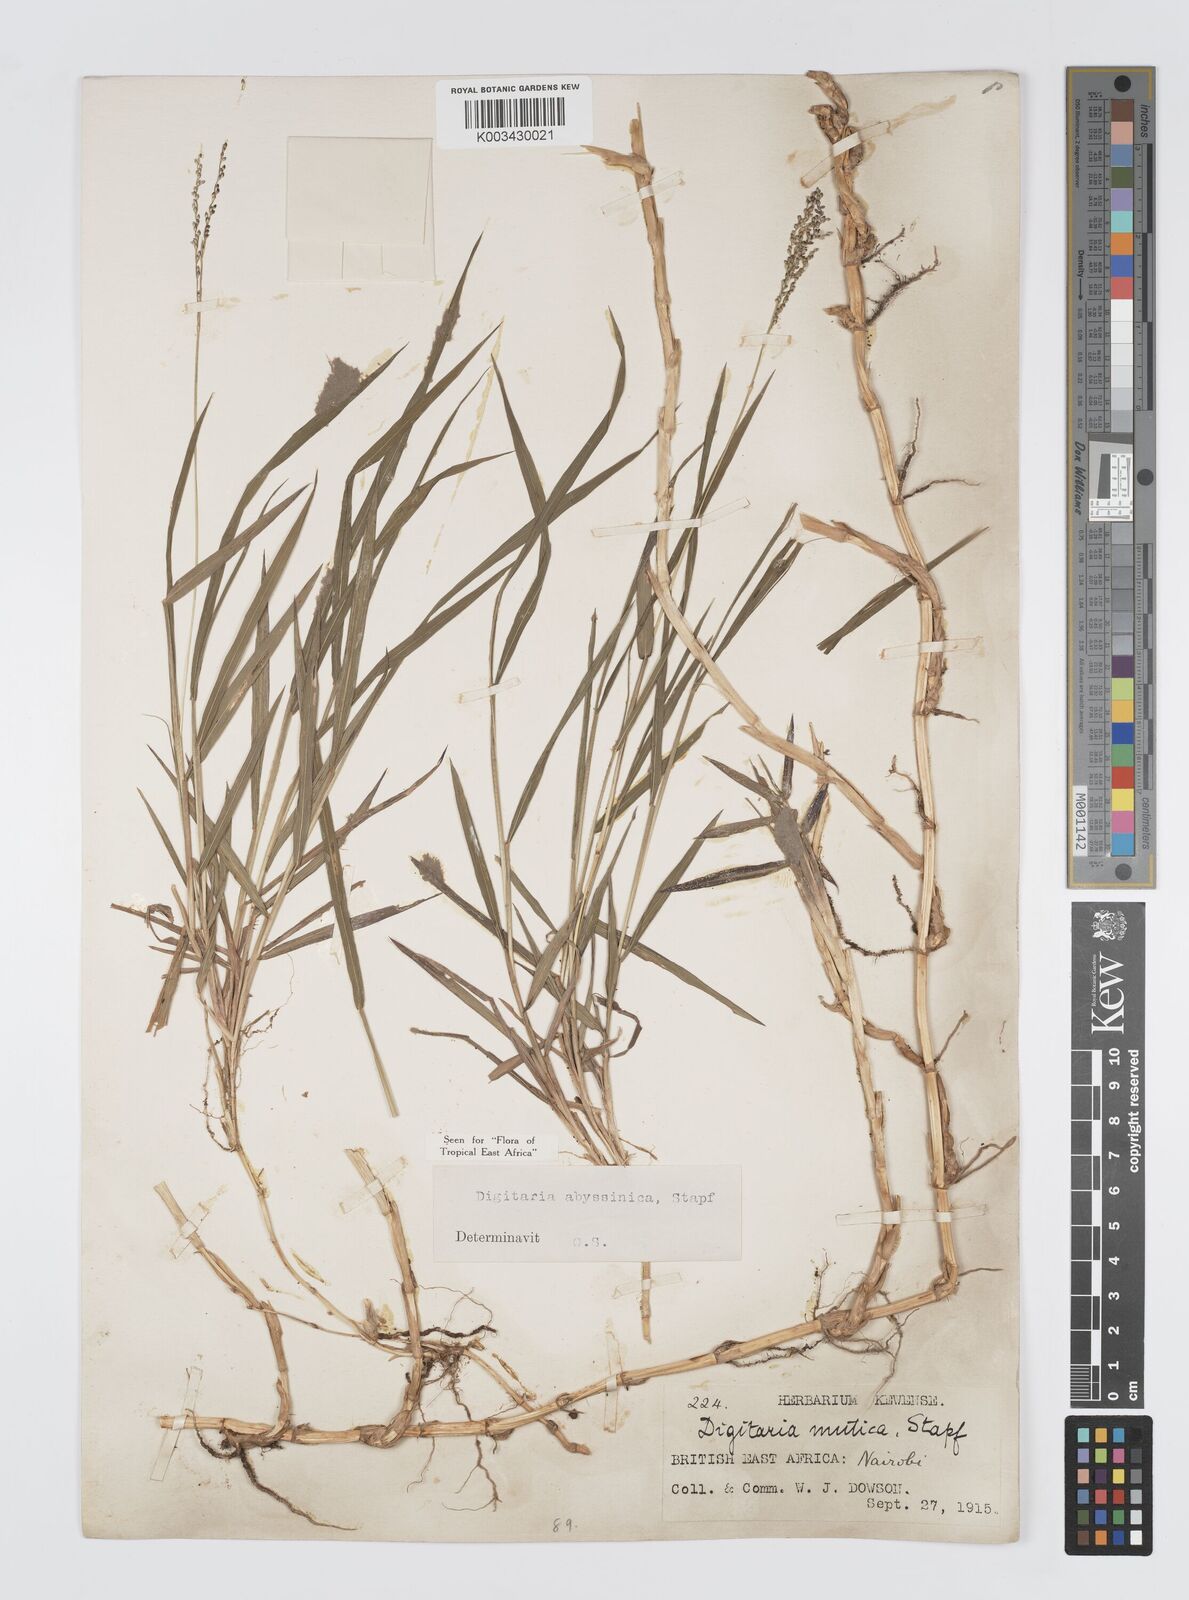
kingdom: Plantae
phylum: Tracheophyta
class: Liliopsida
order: Poales
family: Poaceae
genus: Digitaria
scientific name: Digitaria abyssinica
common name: African couchgrass
